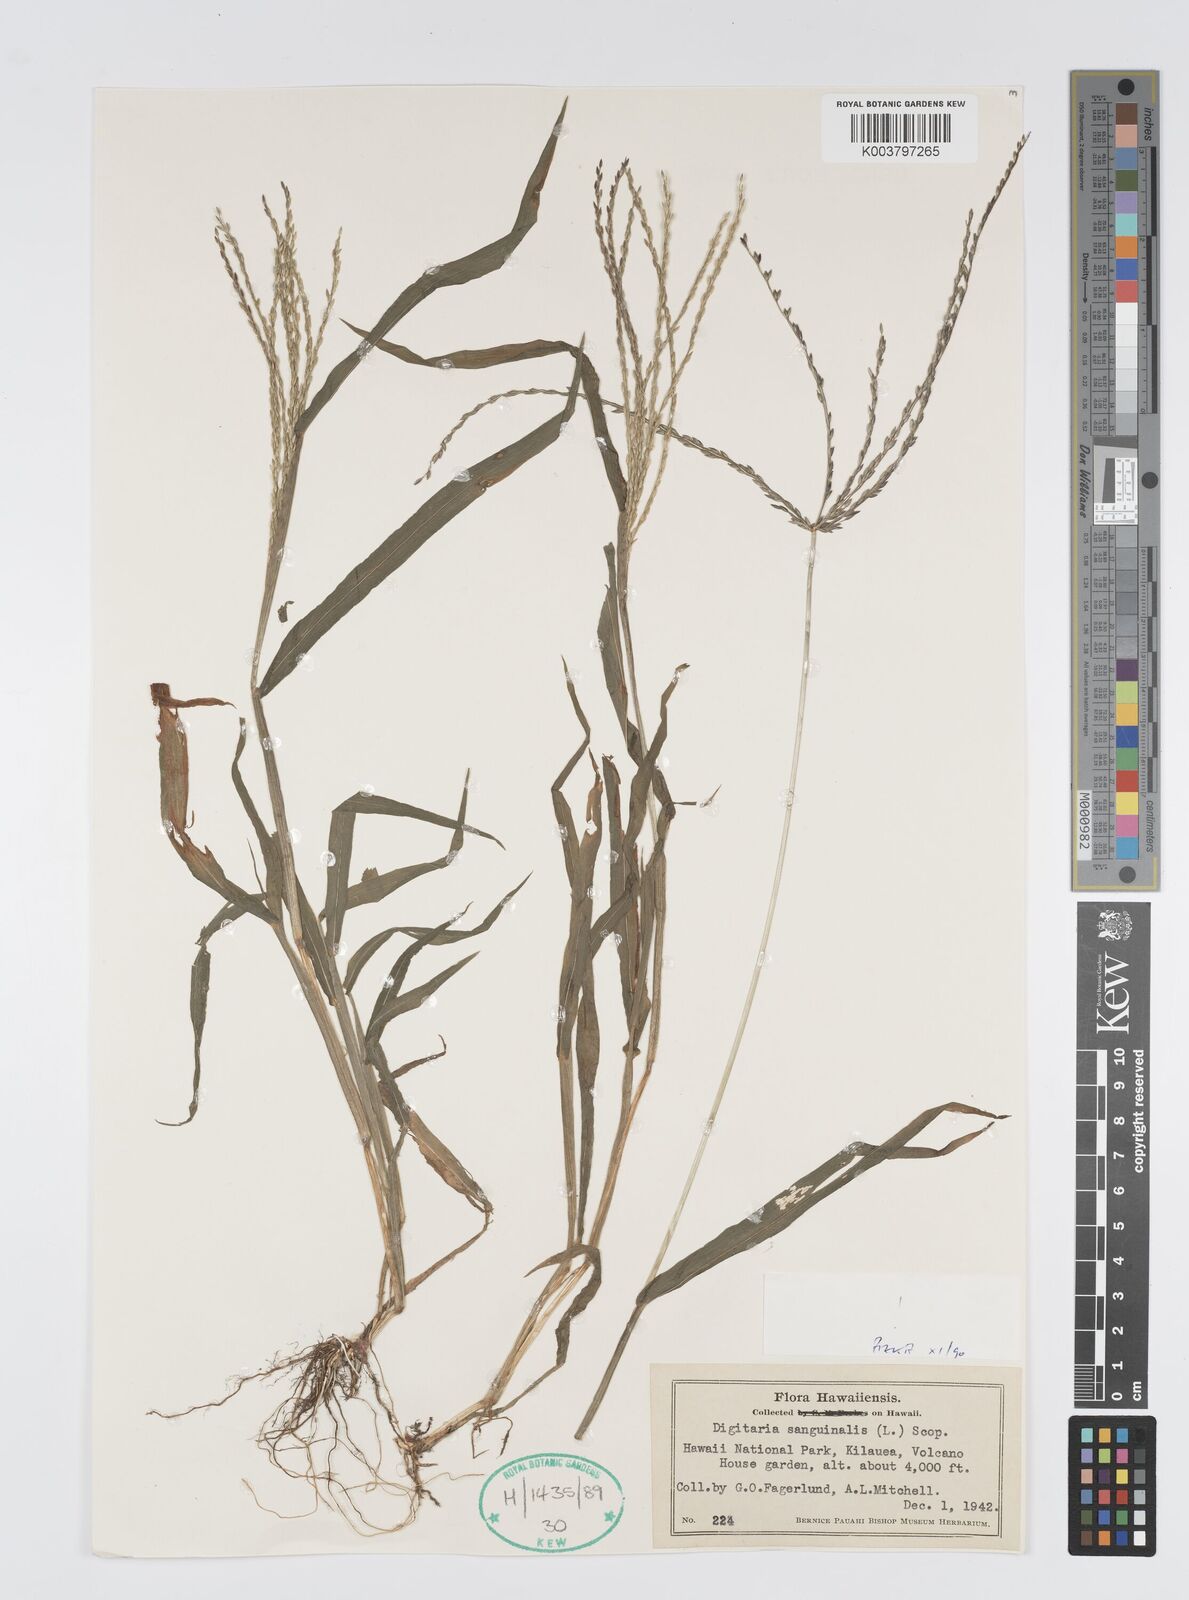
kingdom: Plantae
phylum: Tracheophyta
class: Liliopsida
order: Poales
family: Poaceae
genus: Digitaria
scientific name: Digitaria ciliaris
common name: Tropical finger-grass
